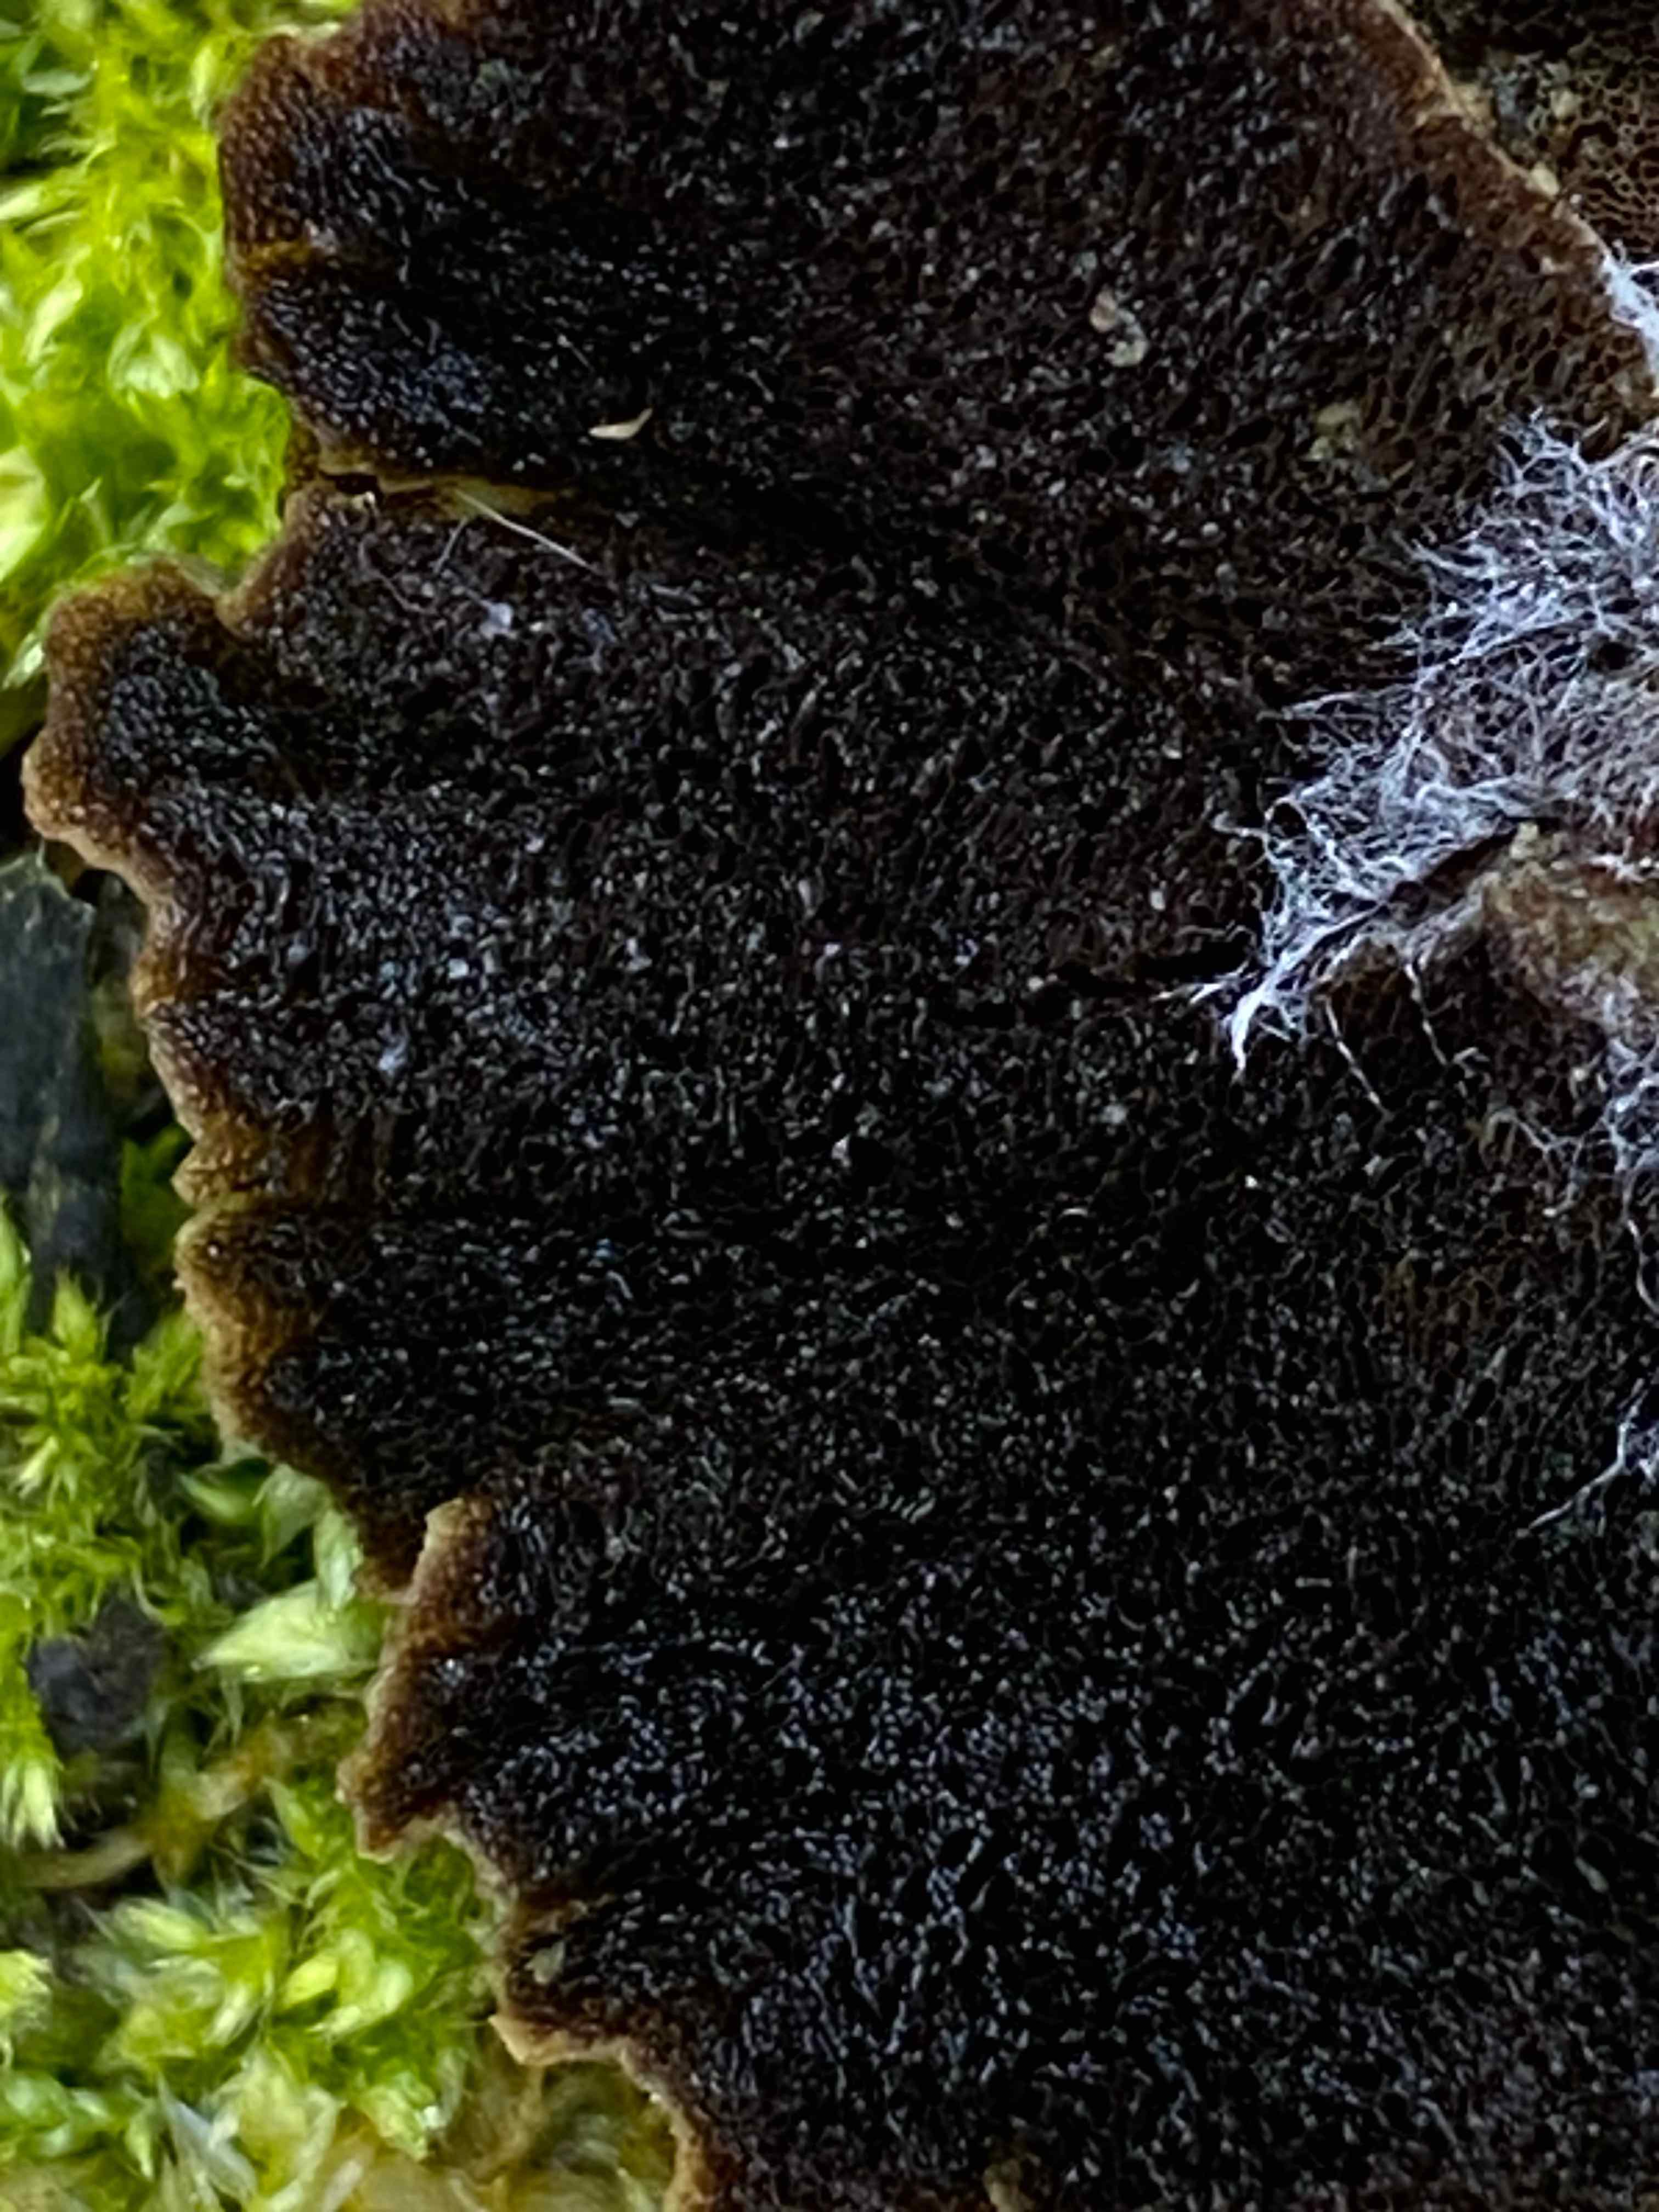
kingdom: Fungi
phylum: Basidiomycota
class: Agaricomycetes
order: Polyporales
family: Phanerochaetaceae
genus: Bjerkandera
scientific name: Bjerkandera adusta
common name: sveden sodporesvamp
